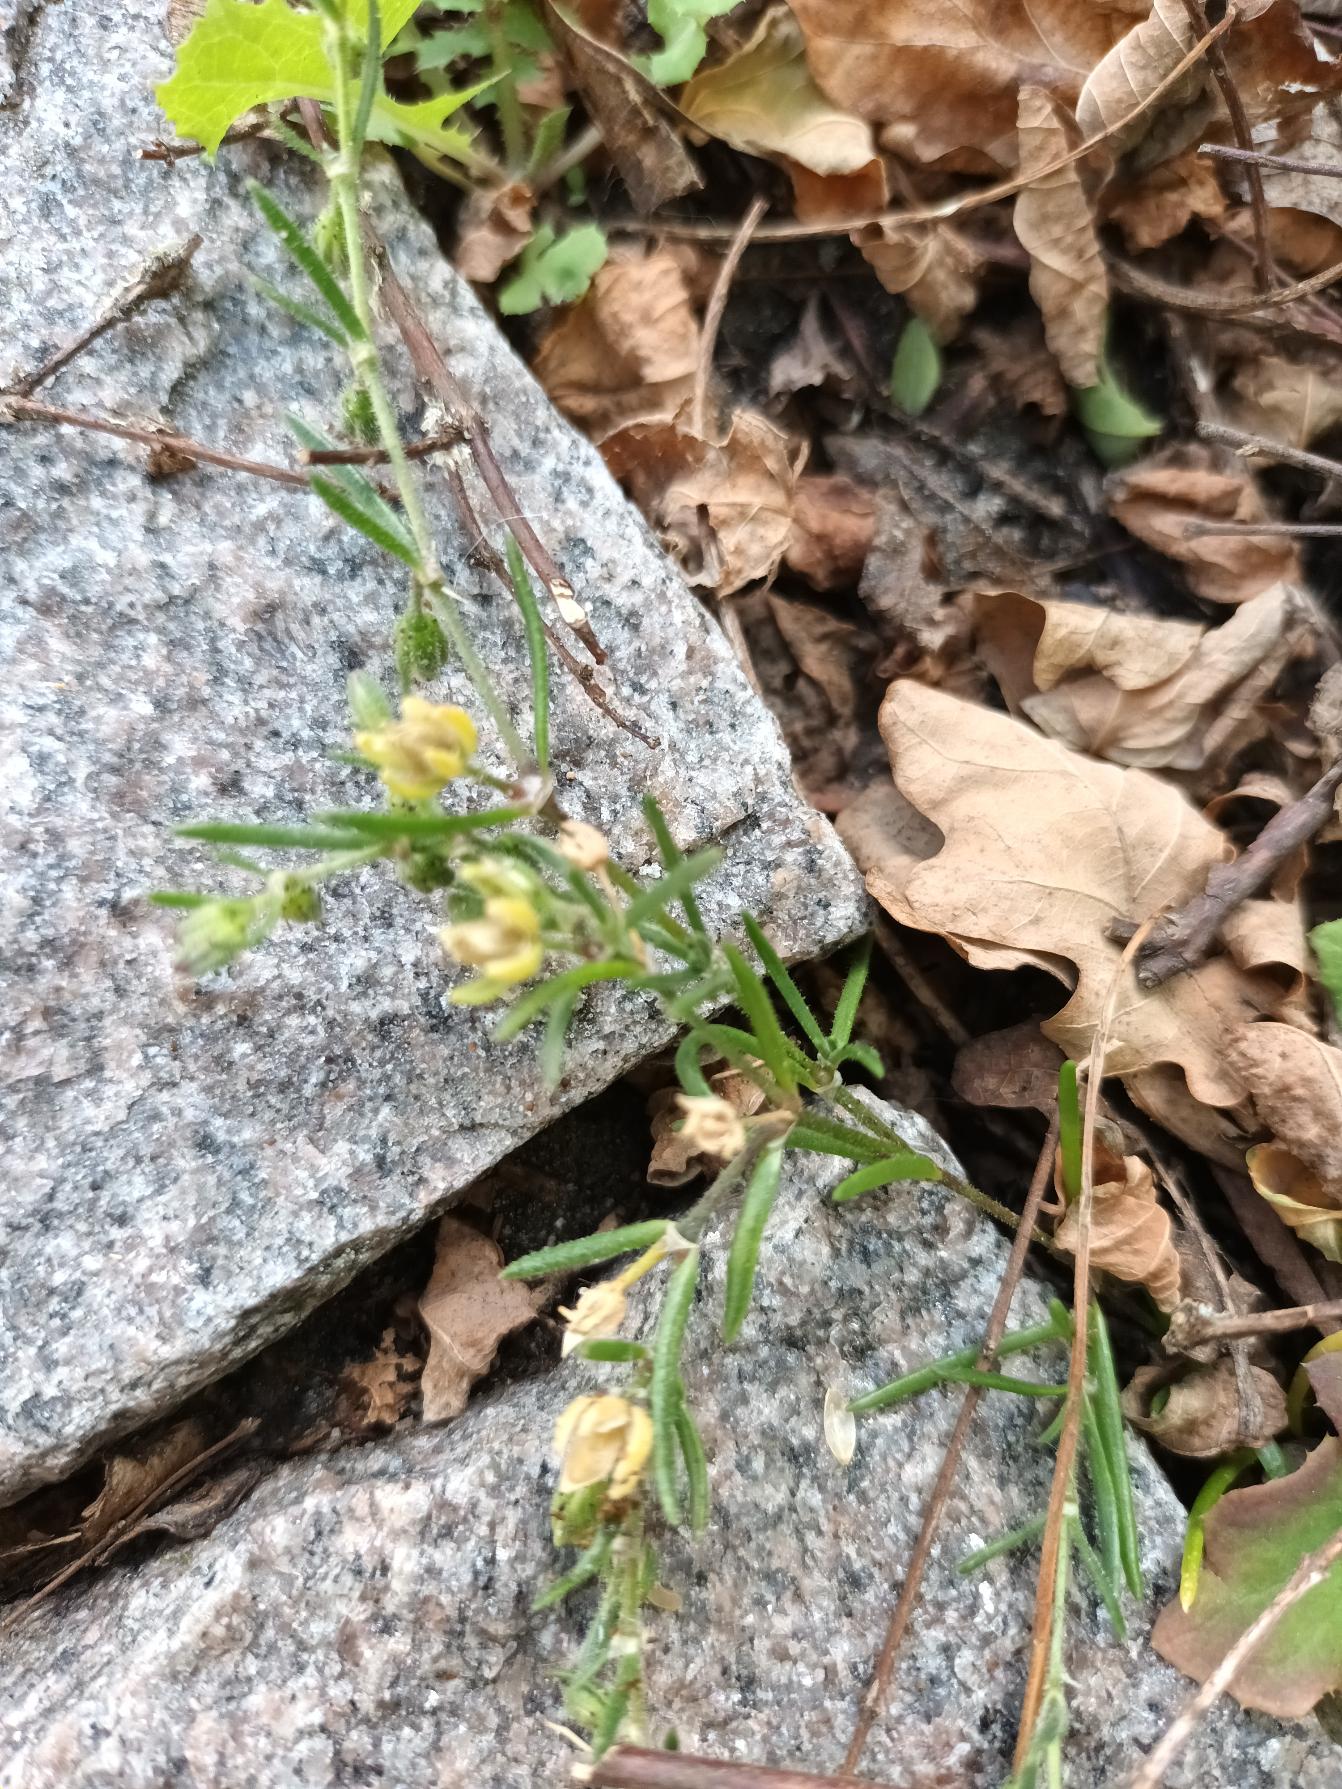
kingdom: Plantae
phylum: Tracheophyta
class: Magnoliopsida
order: Caryophyllales
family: Caryophyllaceae
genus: Spergularia
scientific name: Spergularia marina
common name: Kødet hindeknæ
